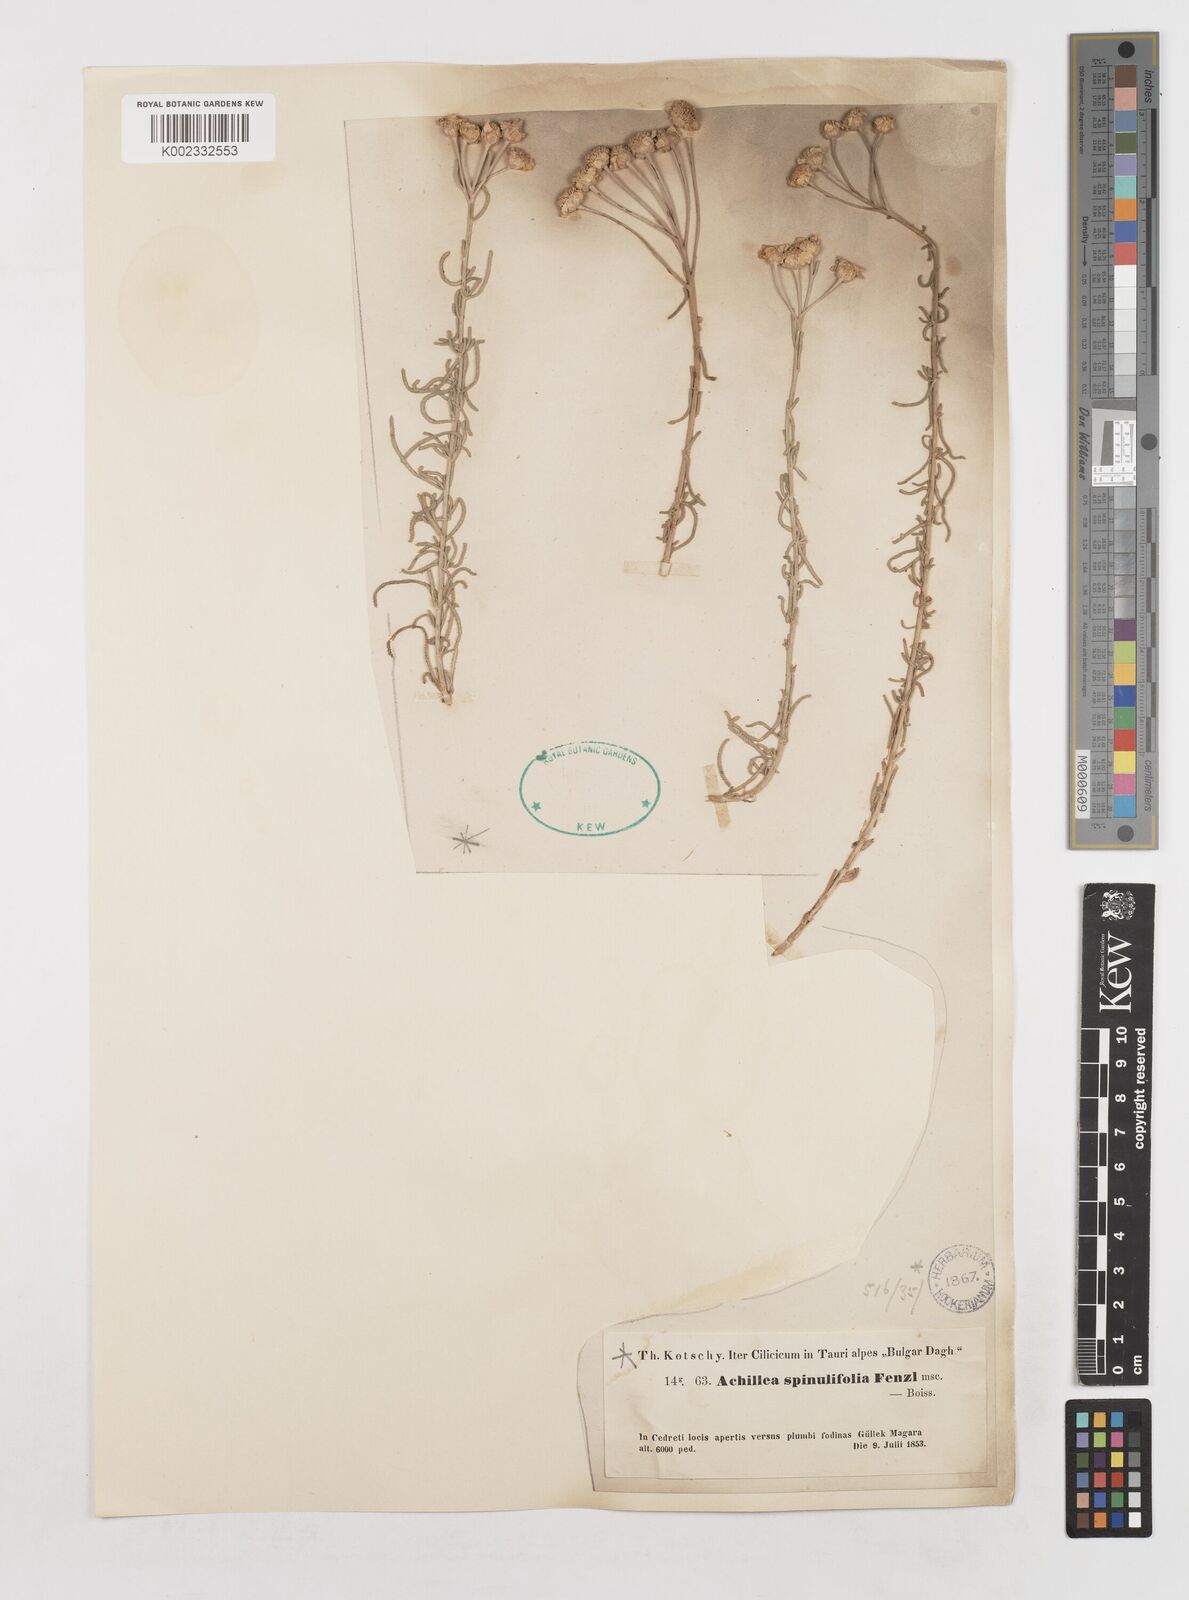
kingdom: Plantae
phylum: Tracheophyta
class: Magnoliopsida
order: Asterales
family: Asteraceae
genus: Achillea
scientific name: Achillea spinulifolia
